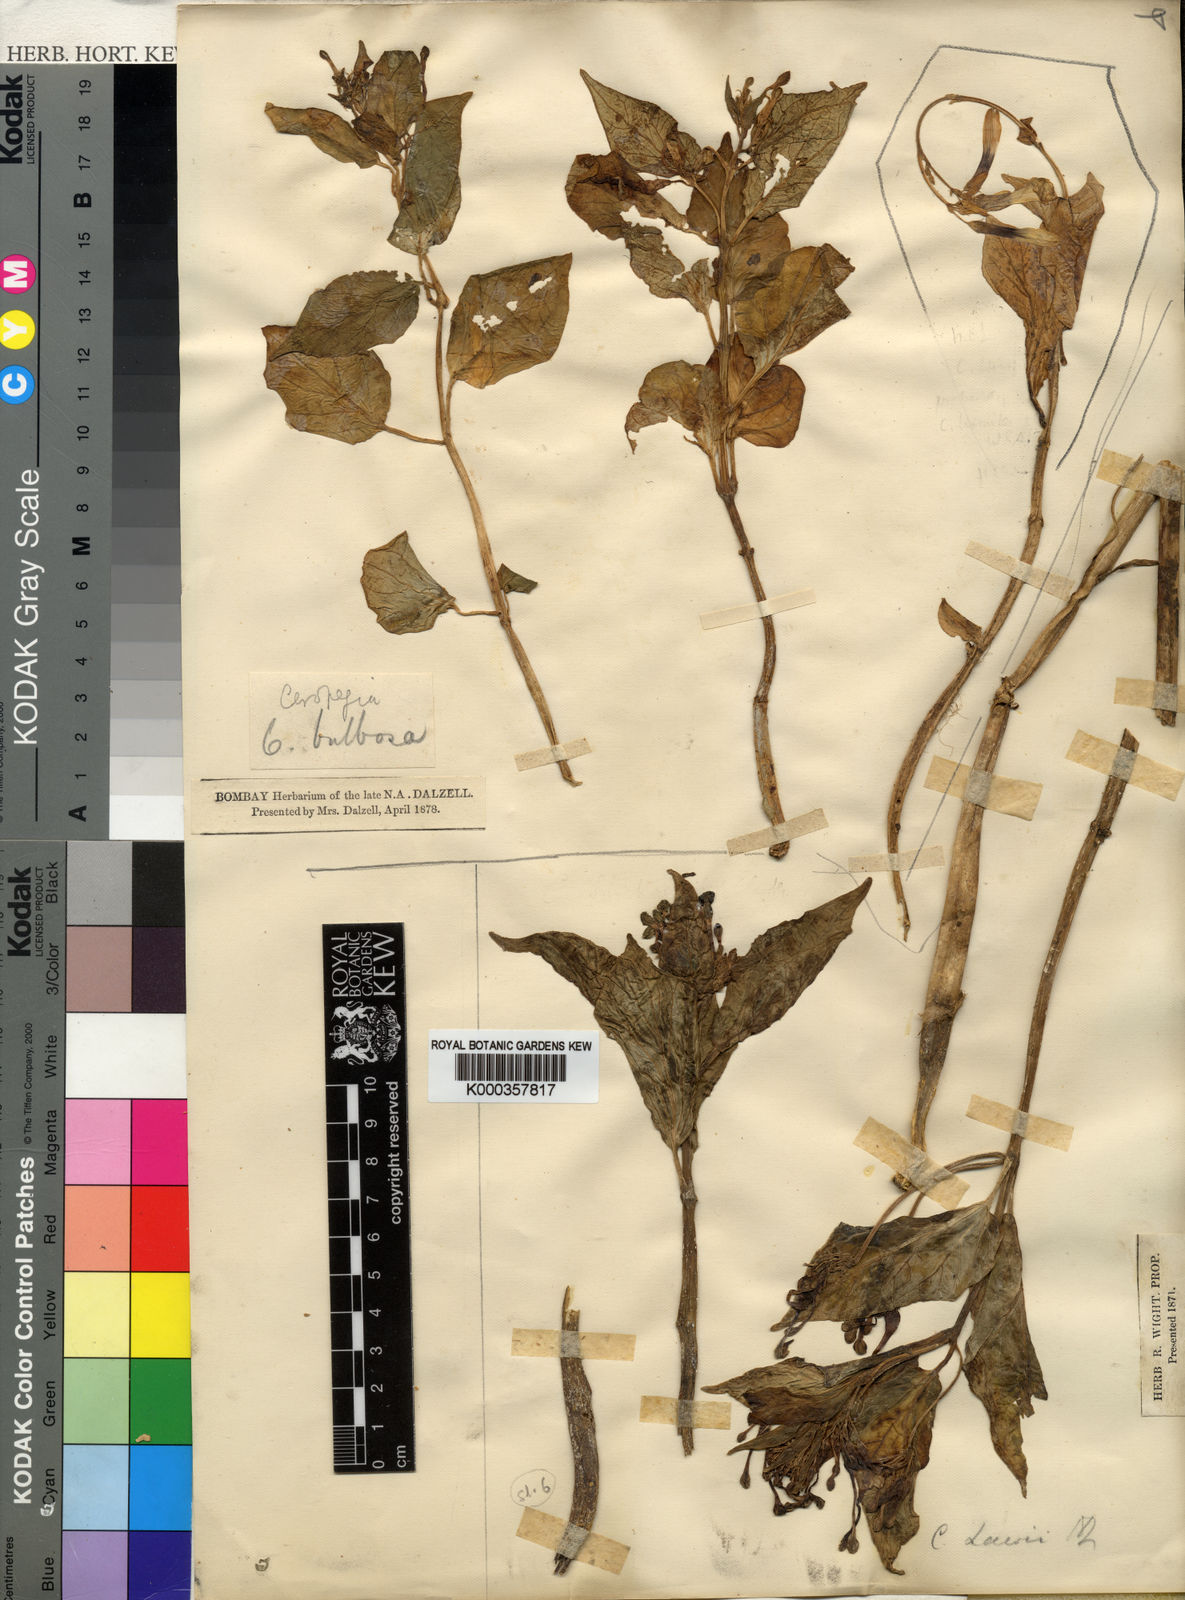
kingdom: Plantae
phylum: Tracheophyta
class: Magnoliopsida
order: Gentianales
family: Apocynaceae
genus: Ceropegia
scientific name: Ceropegia lawii
